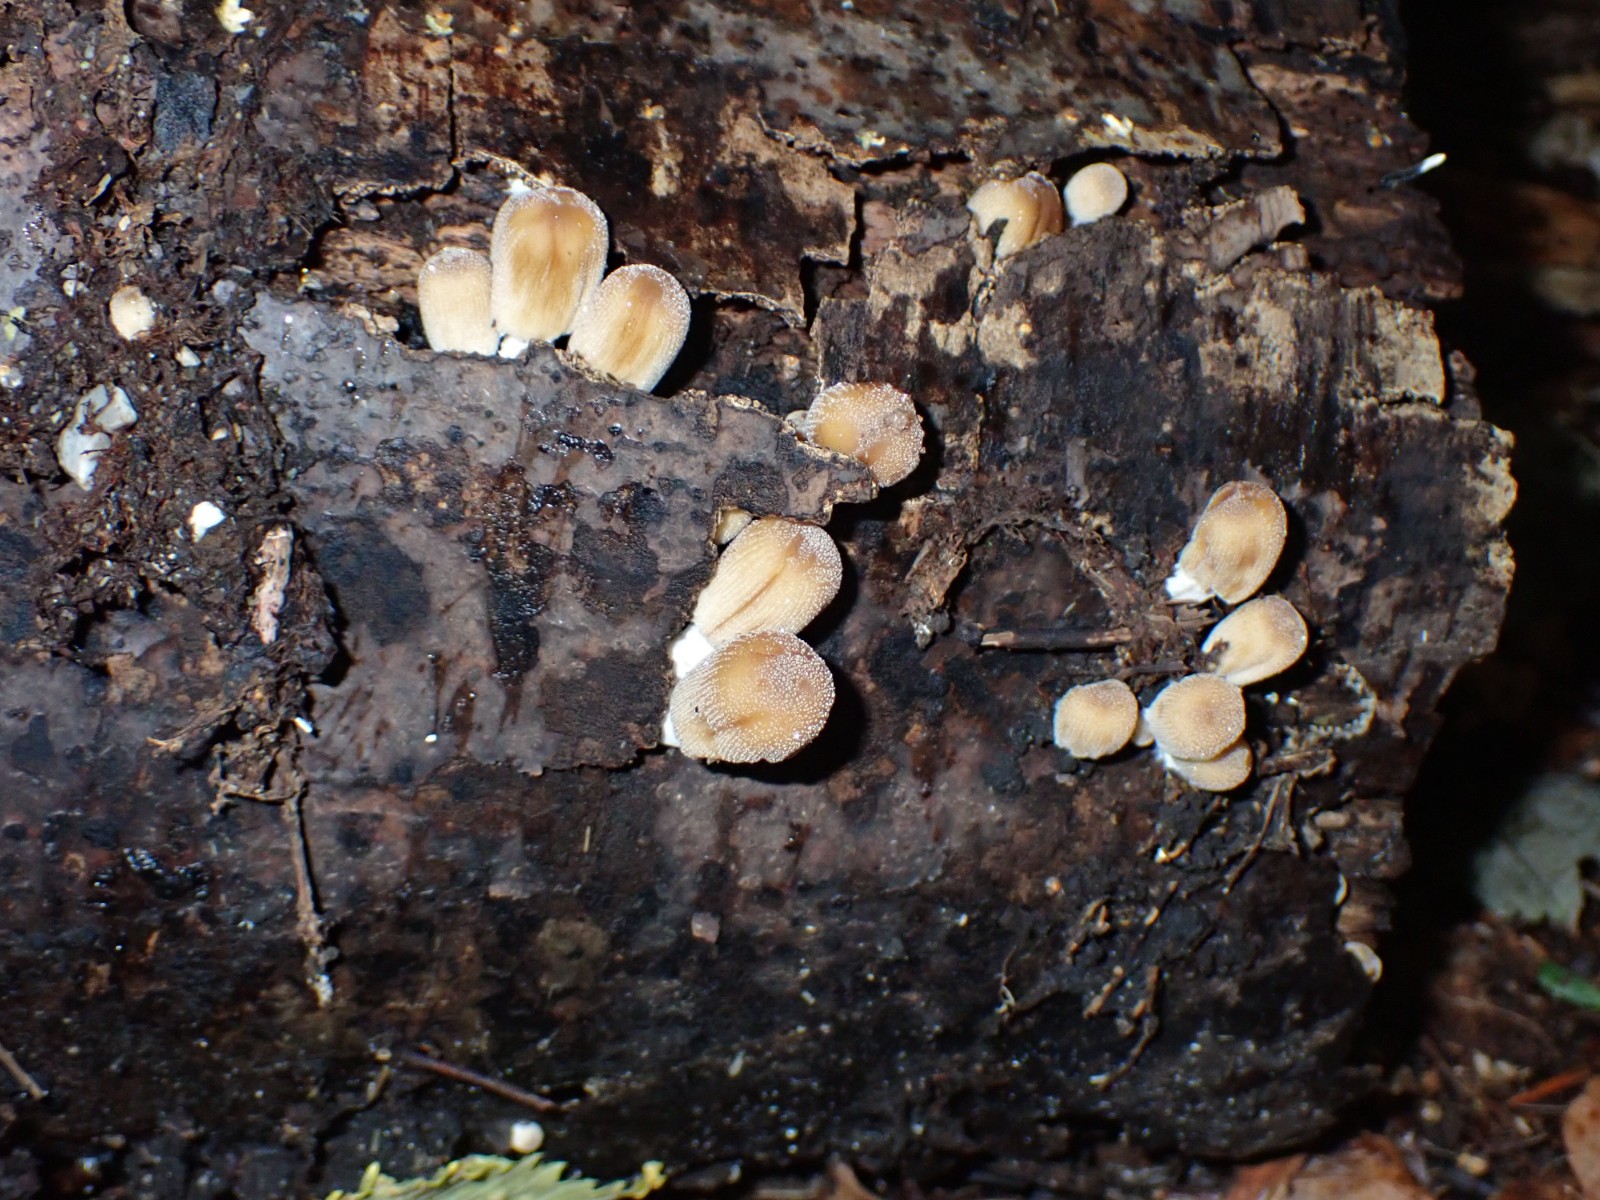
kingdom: Fungi
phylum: Basidiomycota
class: Agaricomycetes
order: Agaricales
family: Psathyrellaceae
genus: Coprinellus
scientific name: Coprinellus micaceus
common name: glimmer-blækhat
